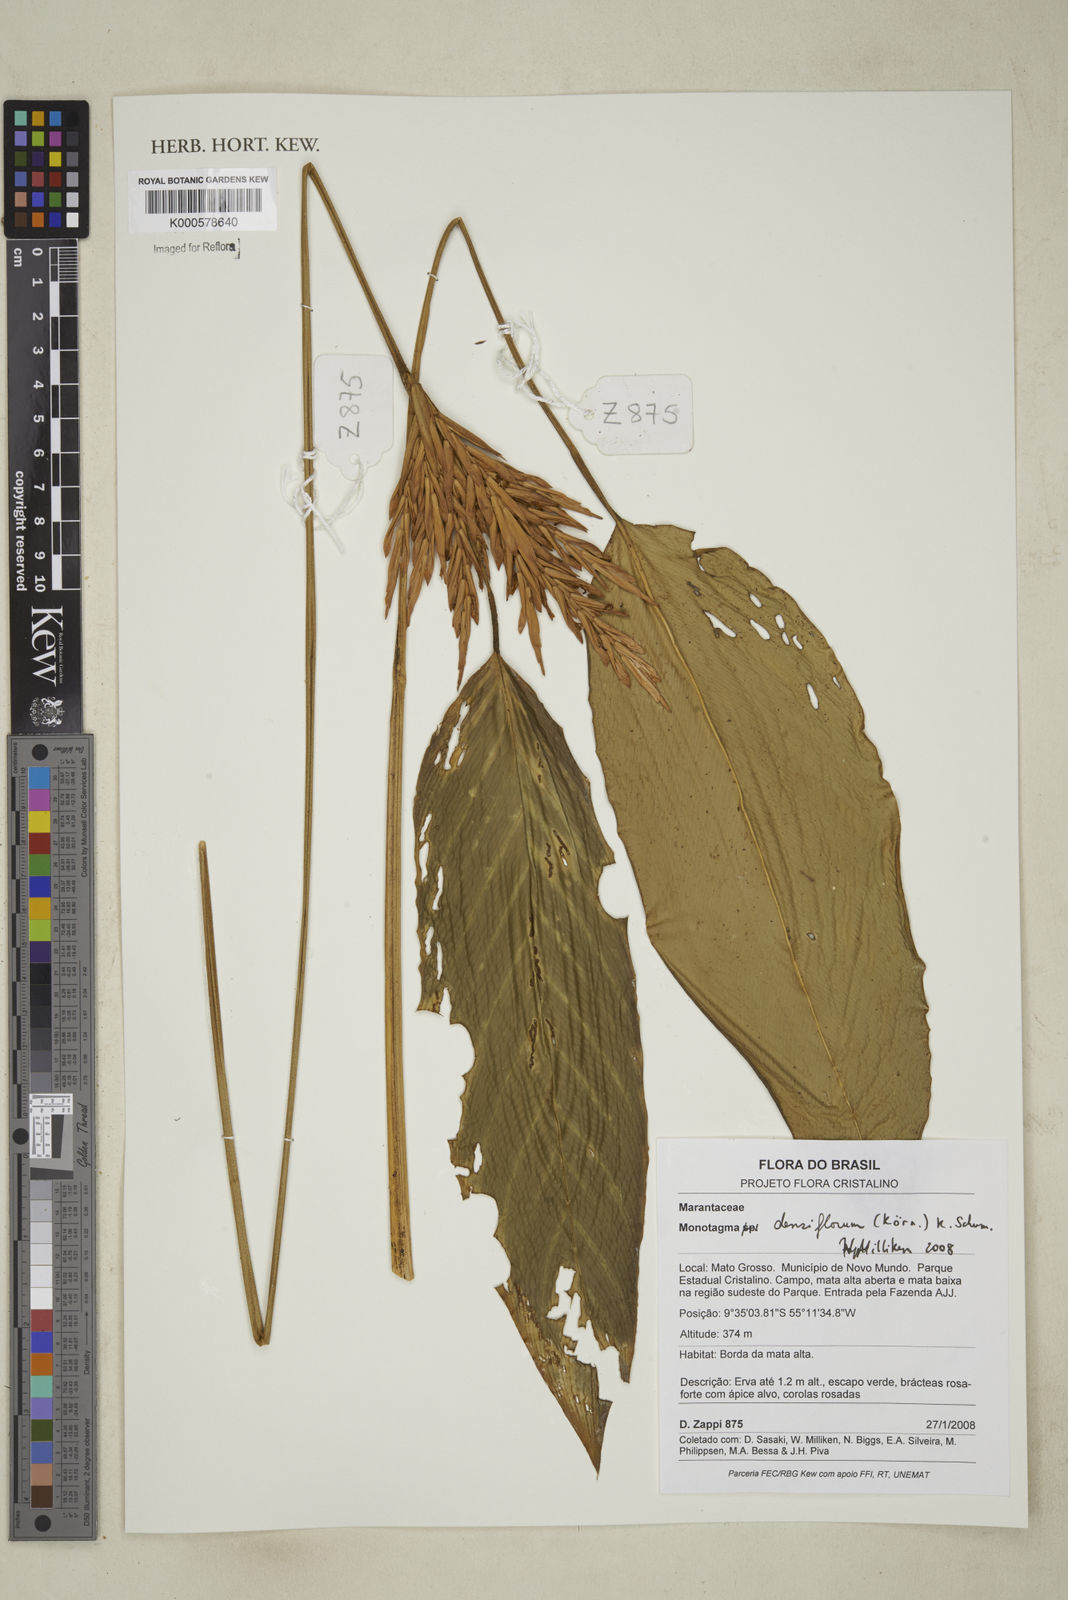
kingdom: Plantae
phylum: Tracheophyta
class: Liliopsida
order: Zingiberales
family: Marantaceae
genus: Monotagma
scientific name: Monotagma
